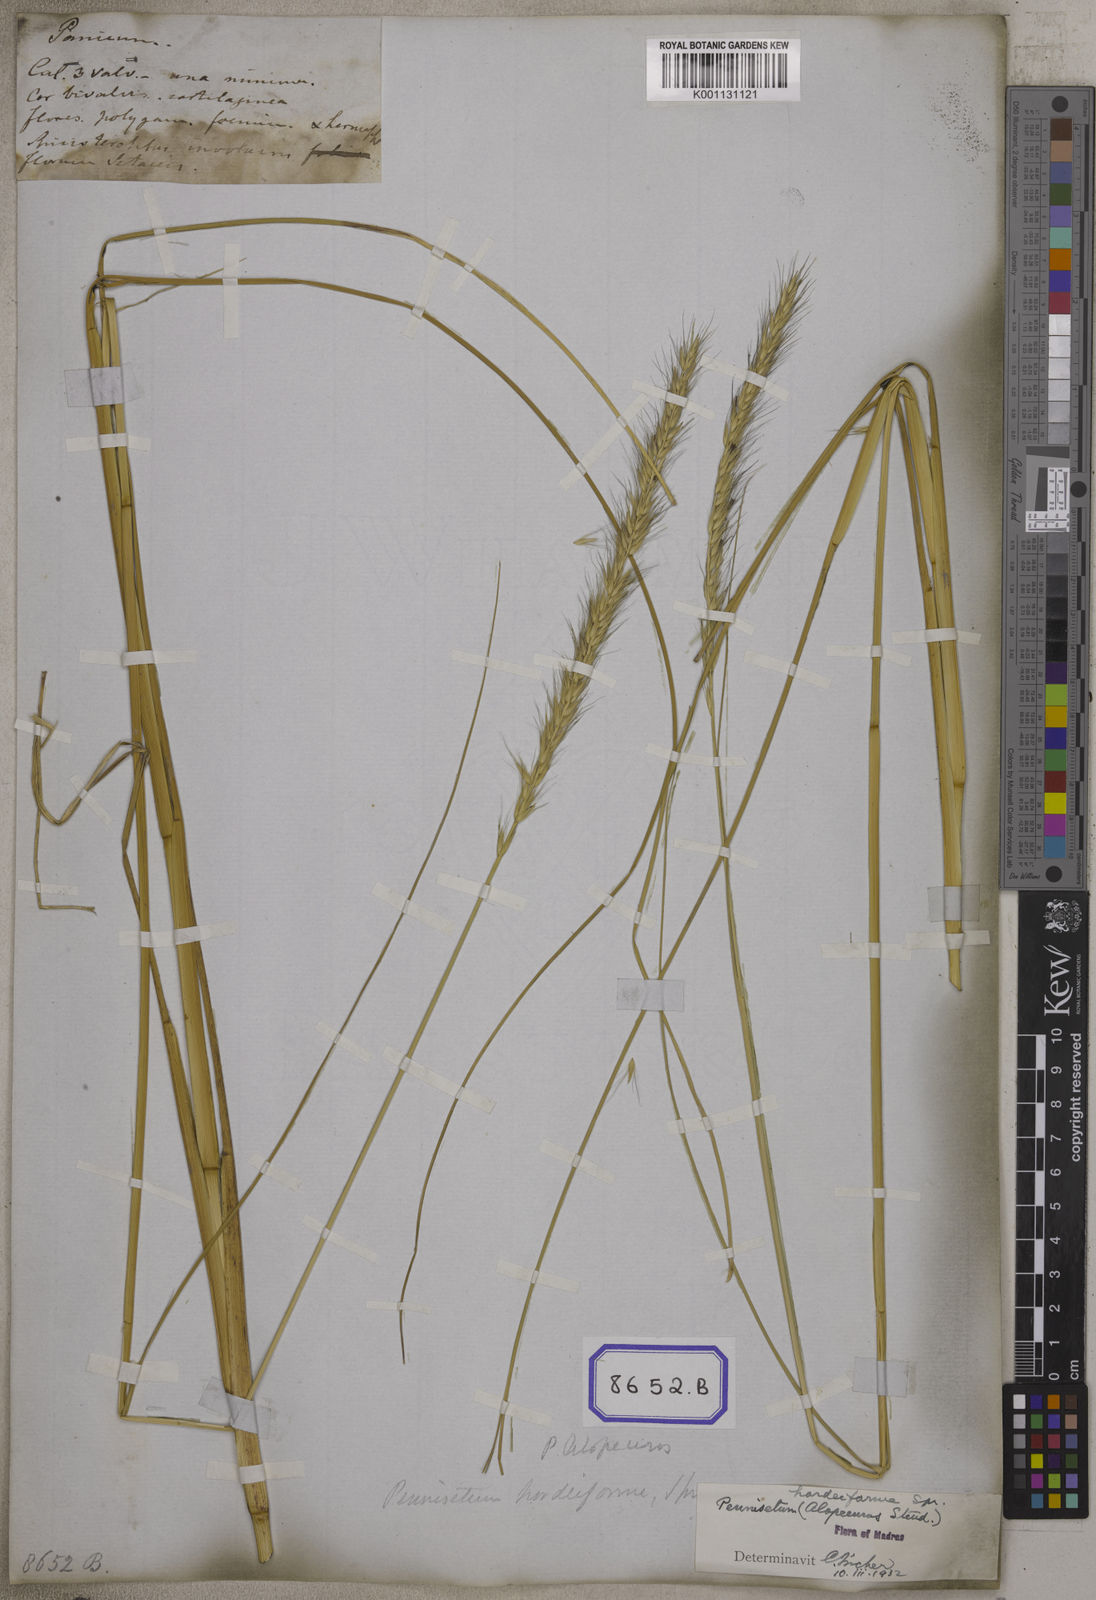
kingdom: Plantae
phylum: Tracheophyta
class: Liliopsida
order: Poales
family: Poaceae
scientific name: Poaceae
